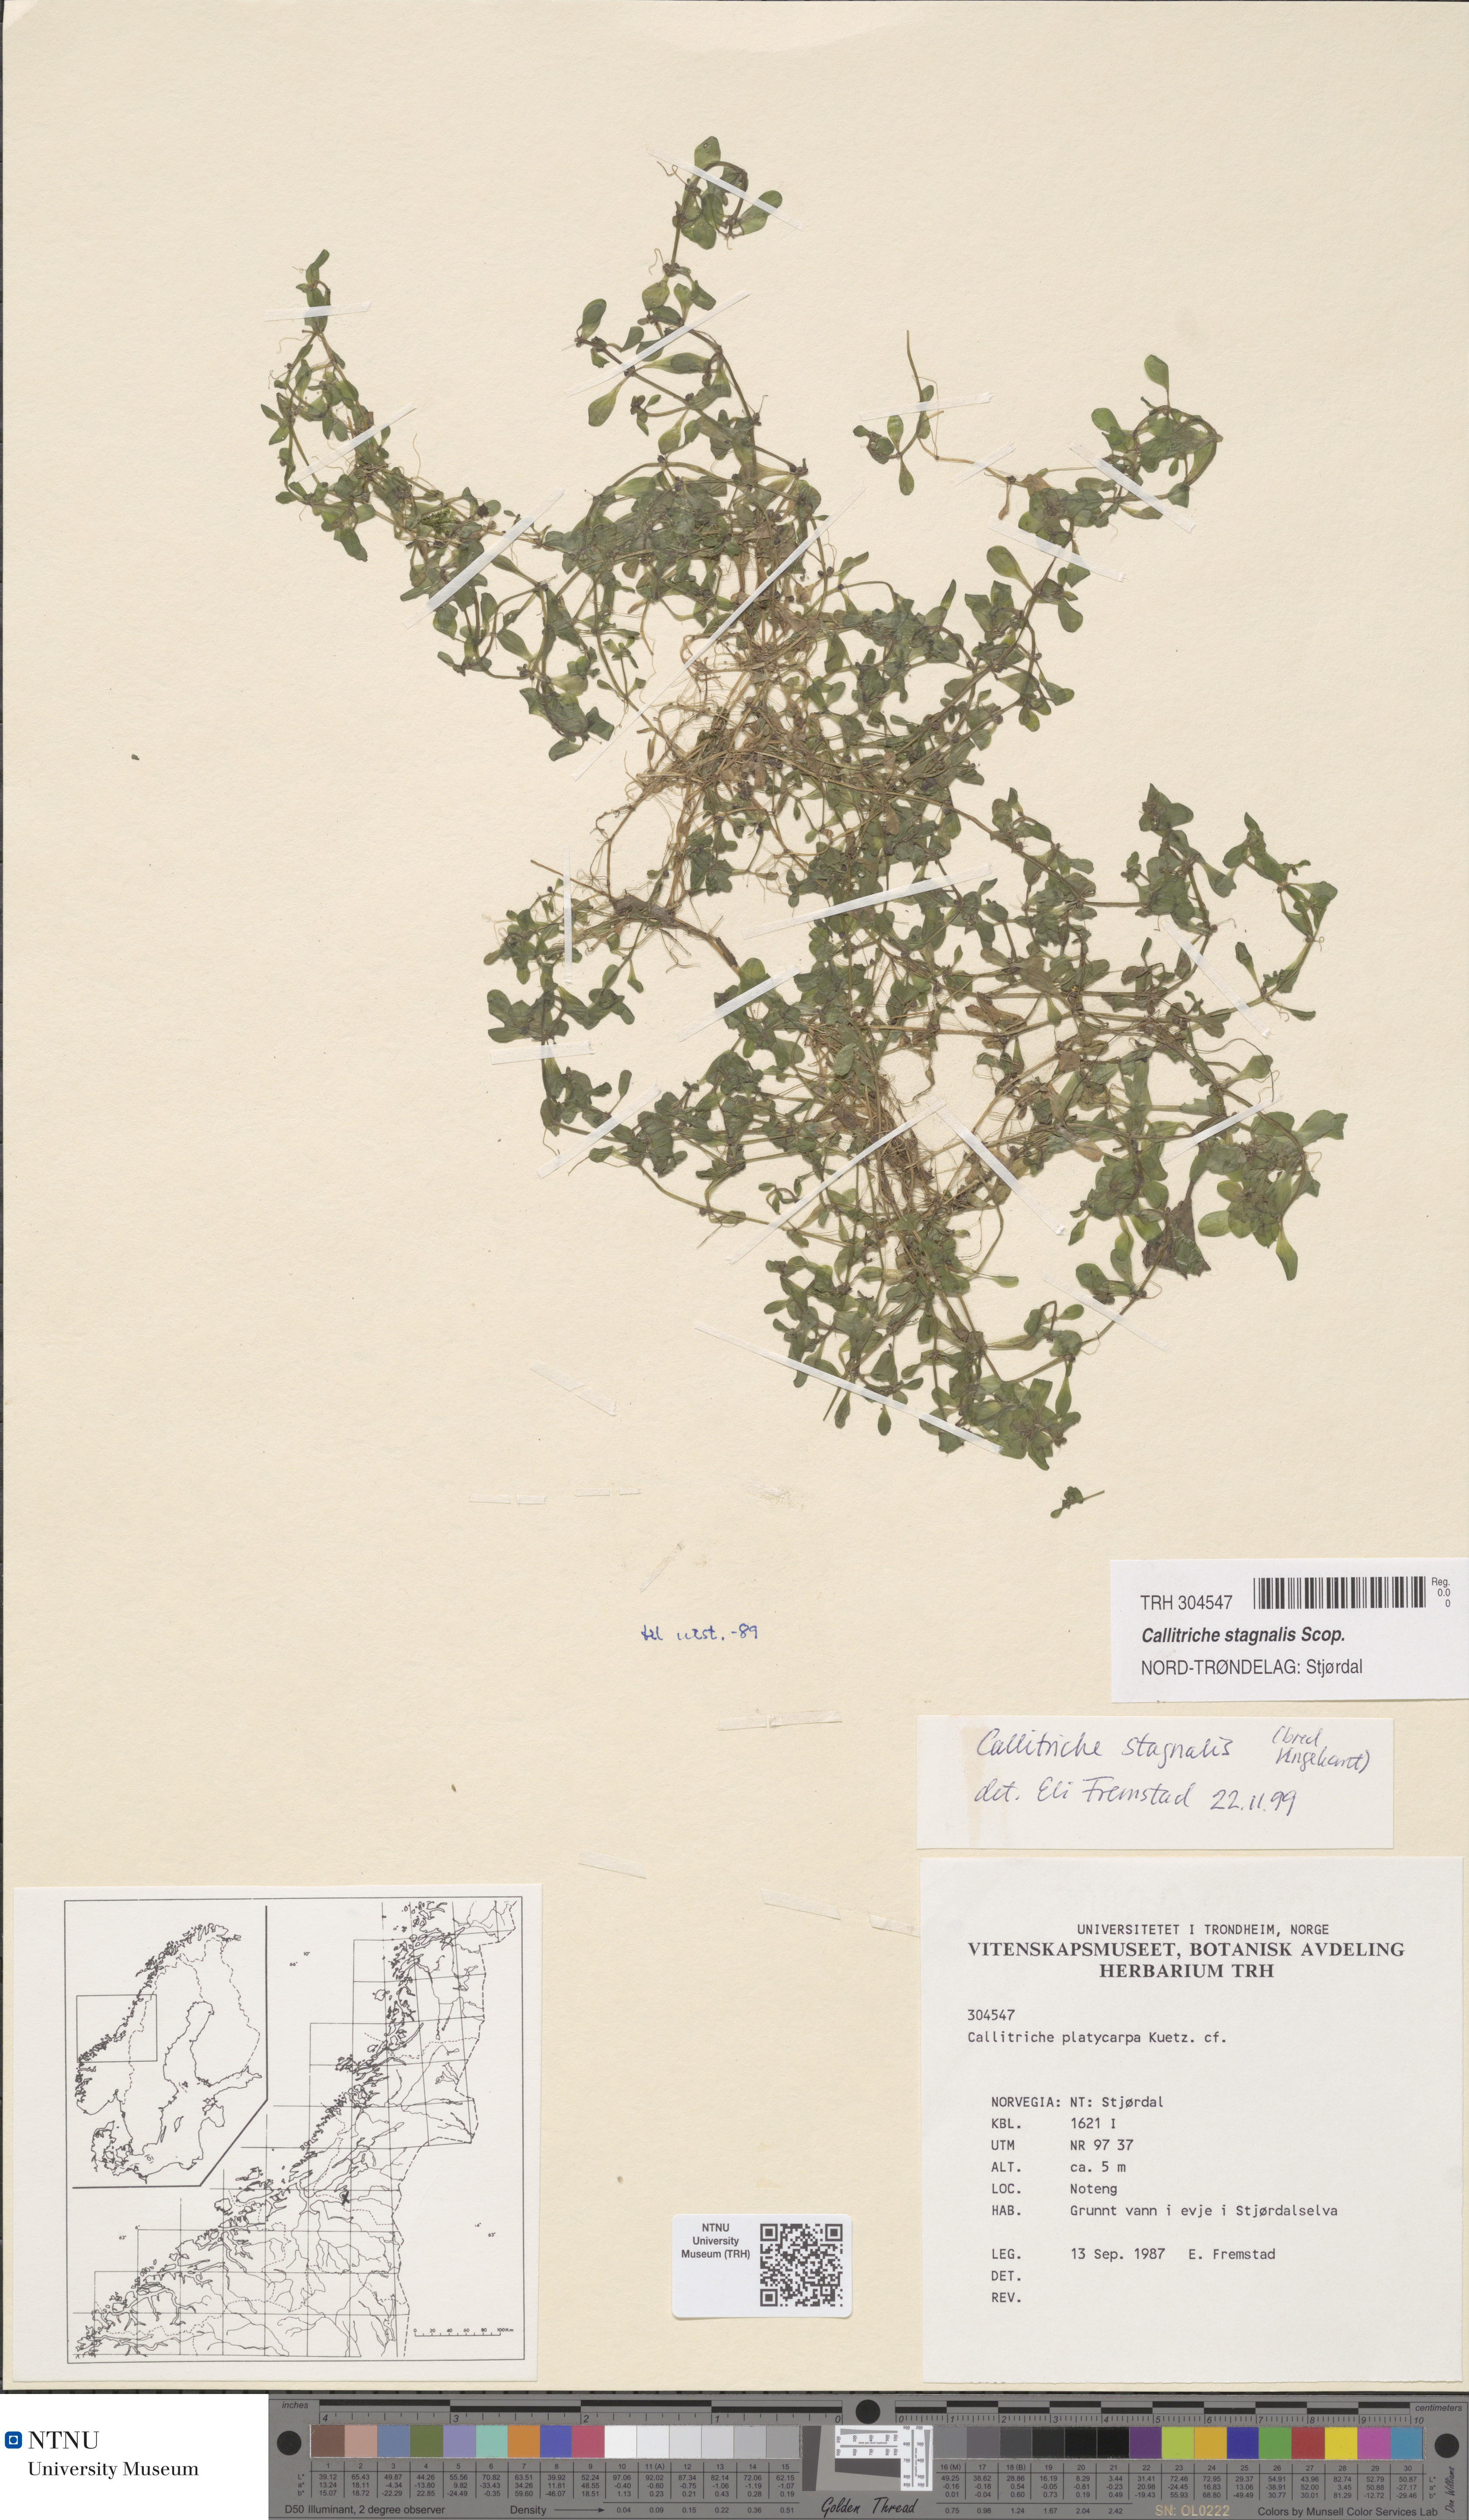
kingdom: Plantae
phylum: Tracheophyta
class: Magnoliopsida
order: Lamiales
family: Plantaginaceae
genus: Callitriche
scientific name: Callitriche platycarpa
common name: Various-leaved water-starwort
